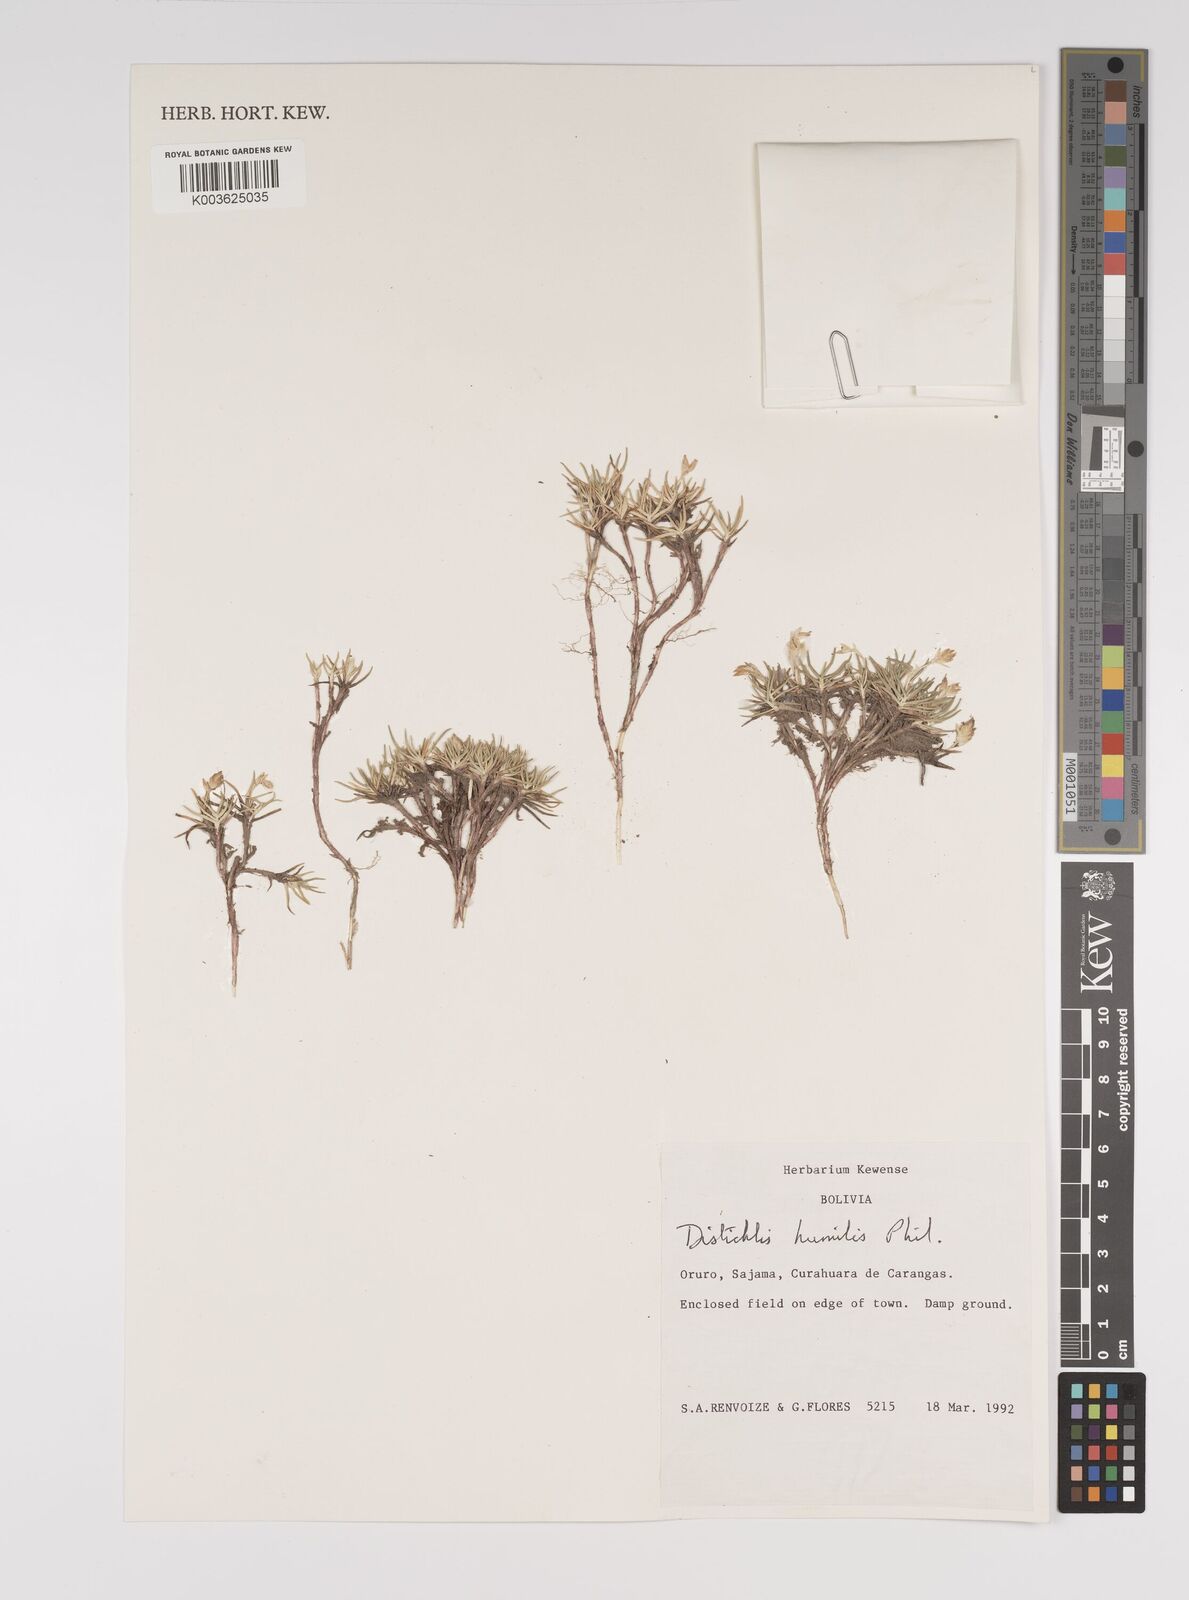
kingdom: Plantae
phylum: Tracheophyta
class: Liliopsida
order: Poales
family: Poaceae
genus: Distichlis
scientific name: Distichlis humilis
